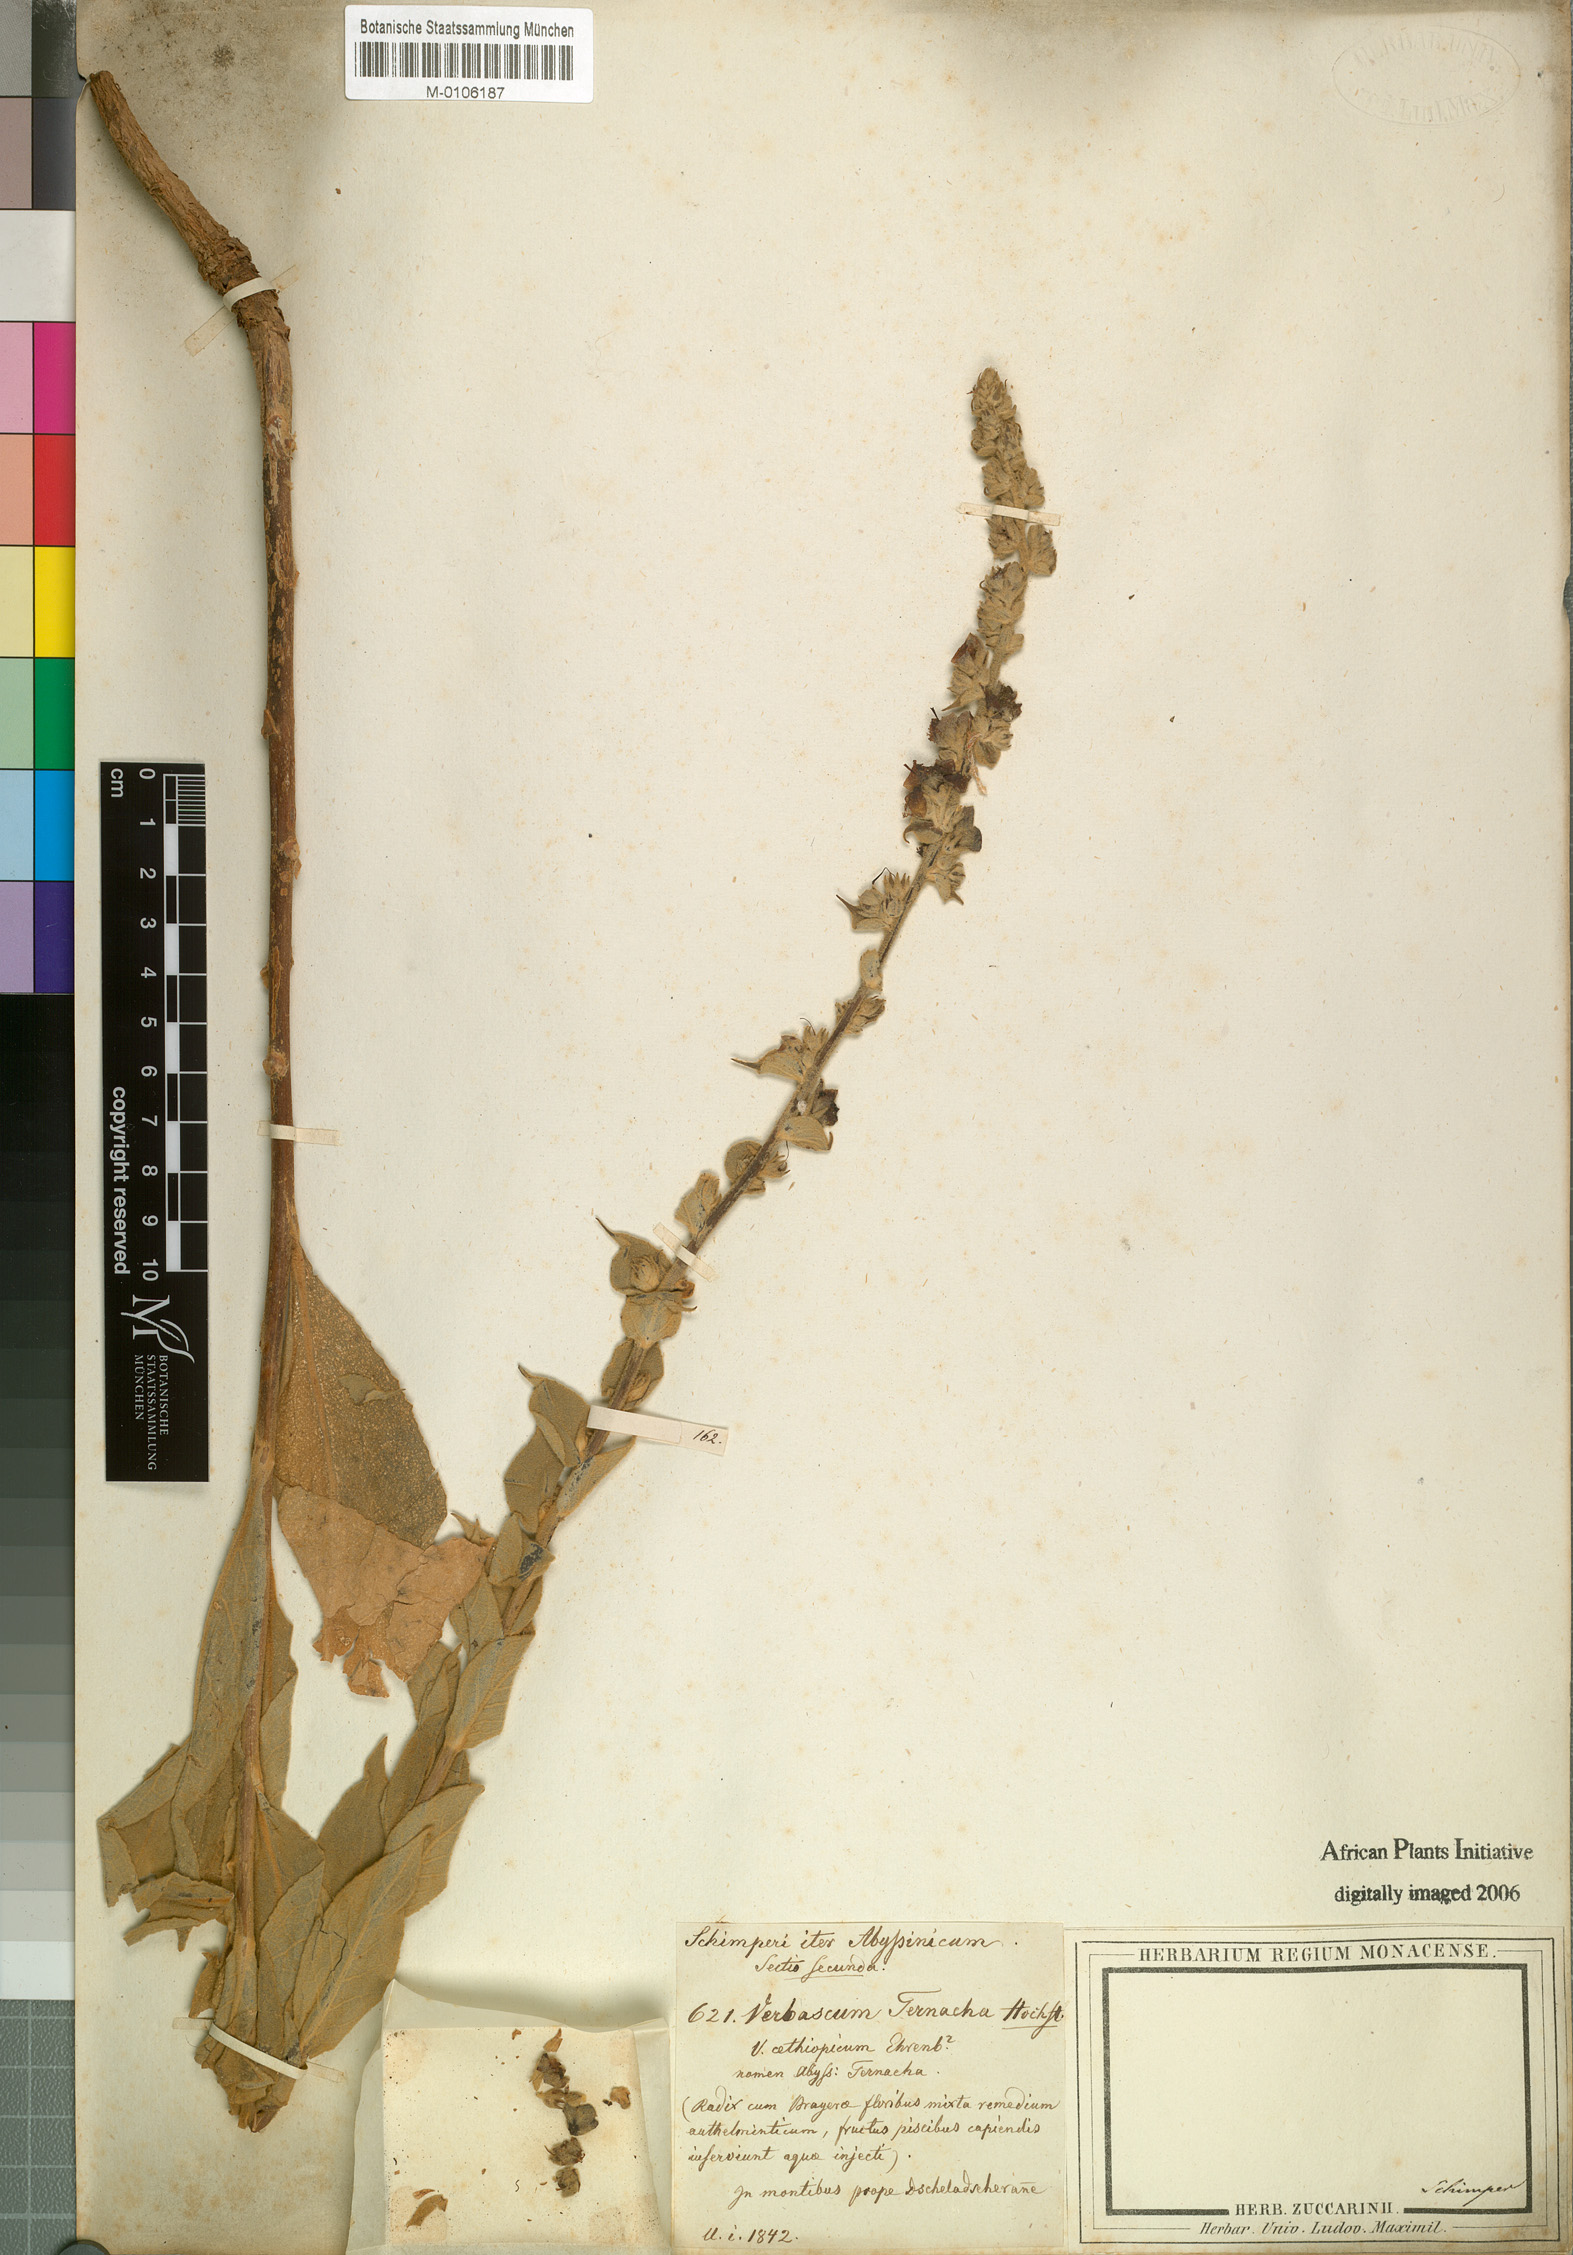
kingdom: Plantae
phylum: Tracheophyta
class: Magnoliopsida
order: Lamiales
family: Scrophulariaceae
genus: Verbascum
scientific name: Verbascum sinaiticum
